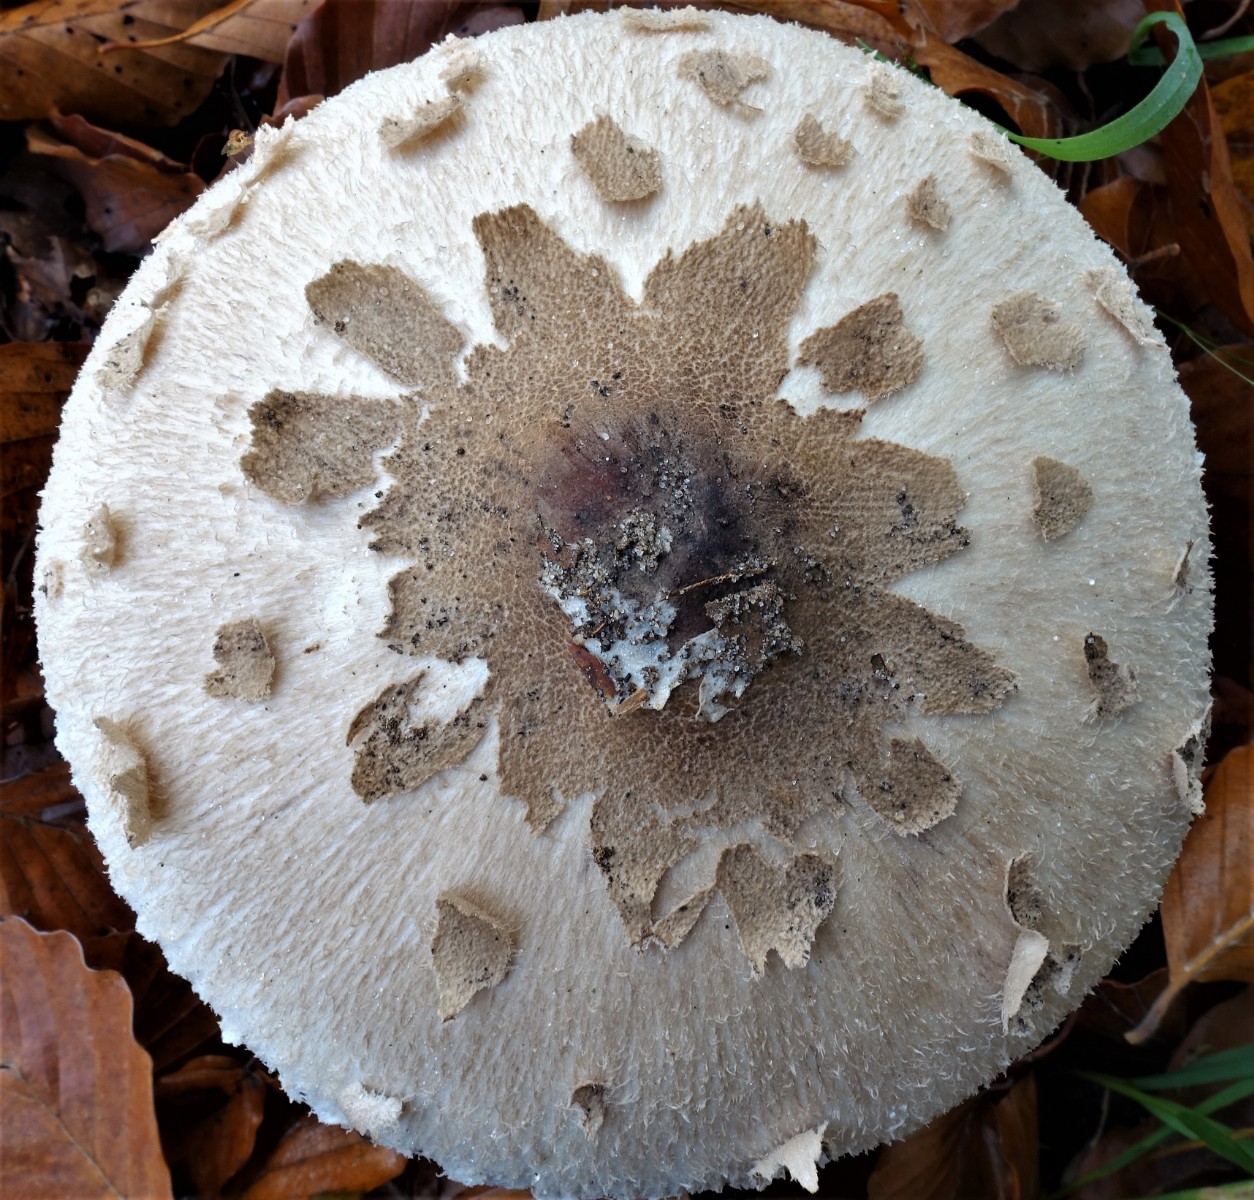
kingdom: Fungi
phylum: Basidiomycota
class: Agaricomycetes
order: Agaricales
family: Agaricaceae
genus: Macrolepiota
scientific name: Macrolepiota mastoidea
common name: puklet kæmpeparasolhat
